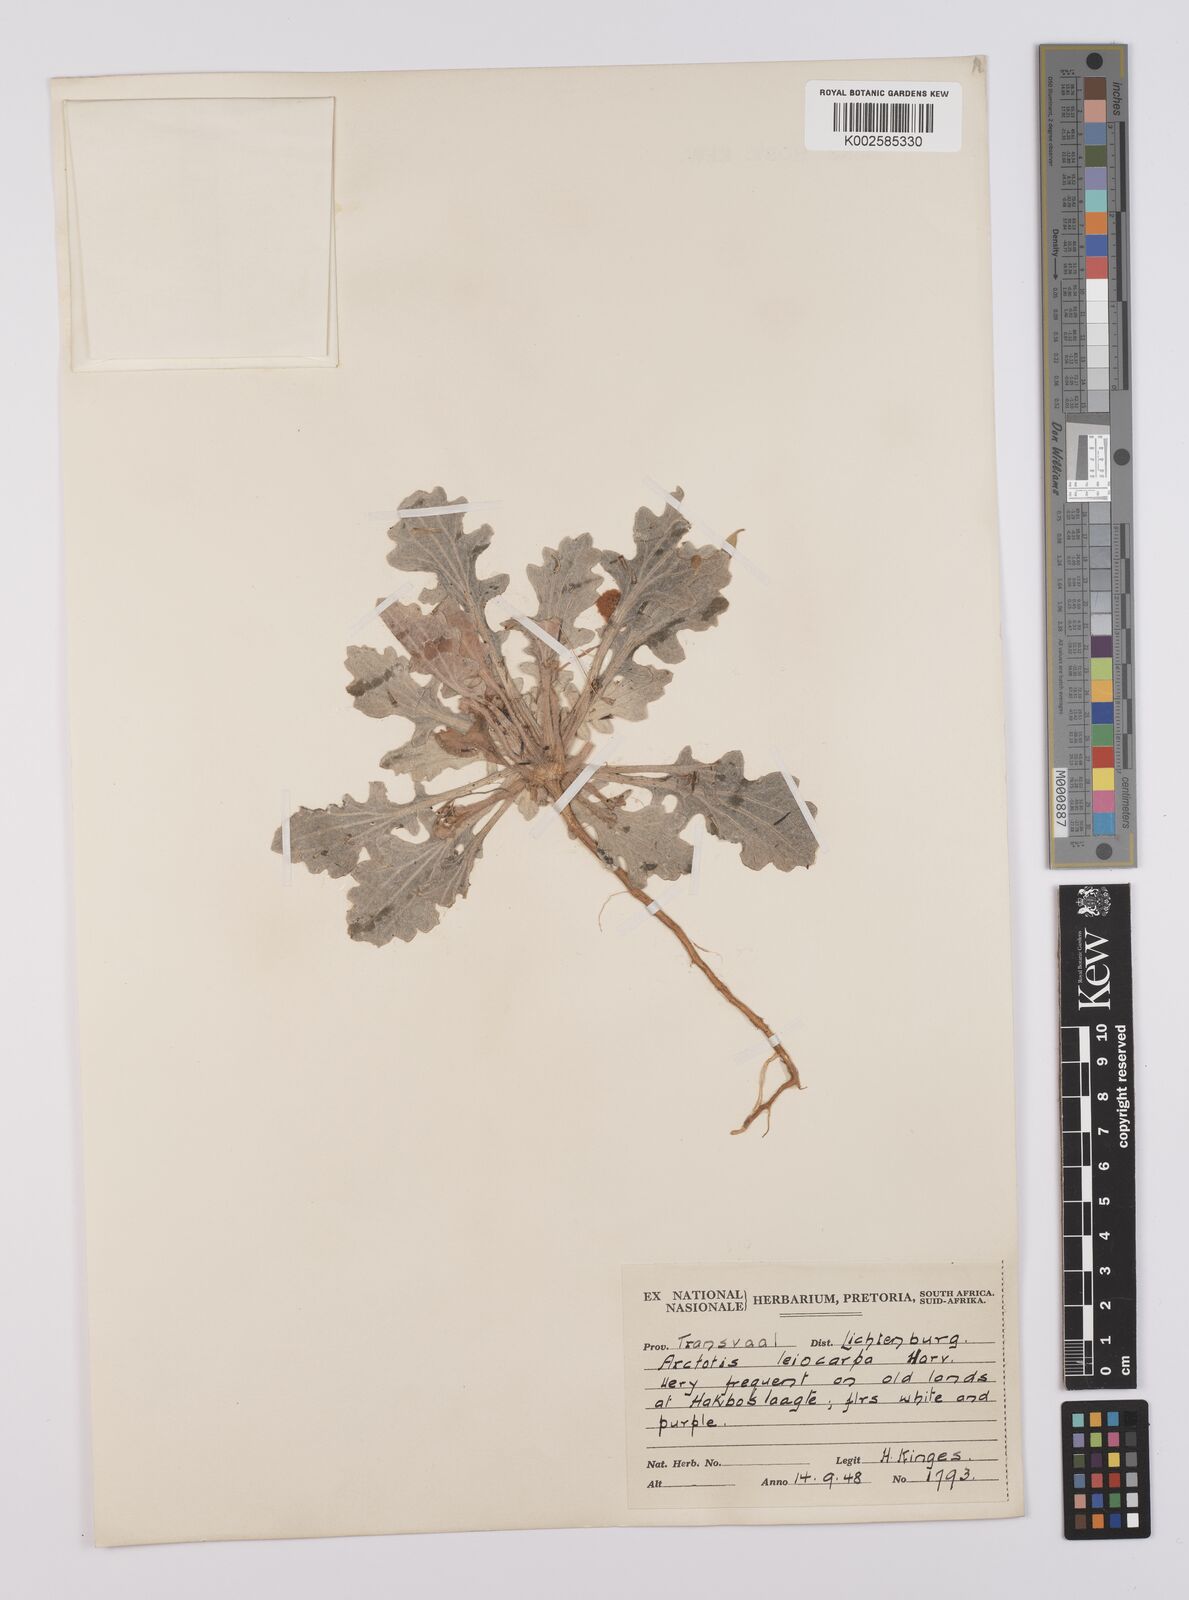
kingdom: Plantae
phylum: Tracheophyta
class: Magnoliopsida
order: Asterales
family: Asteraceae
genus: Arctotis
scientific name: Arctotis
